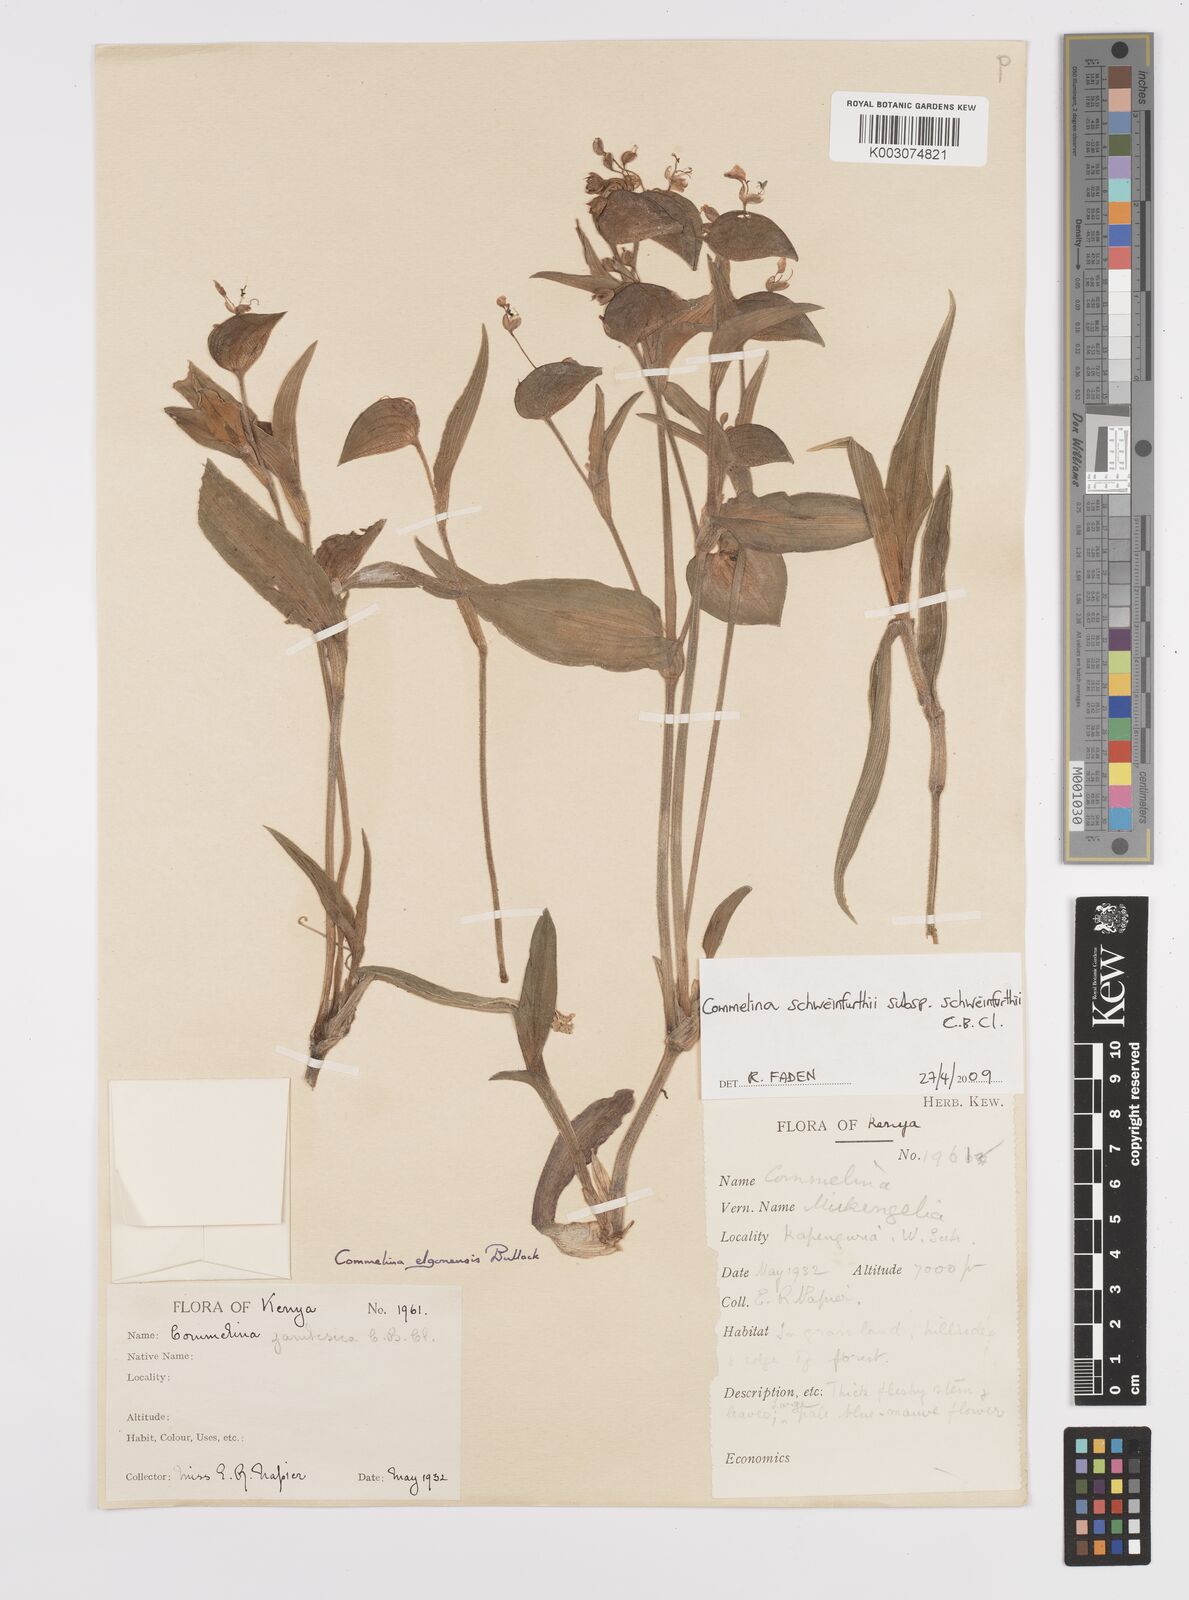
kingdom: Plantae
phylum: Tracheophyta
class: Liliopsida
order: Commelinales
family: Commelinaceae
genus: Commelina
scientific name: Commelina schweinfurthii
